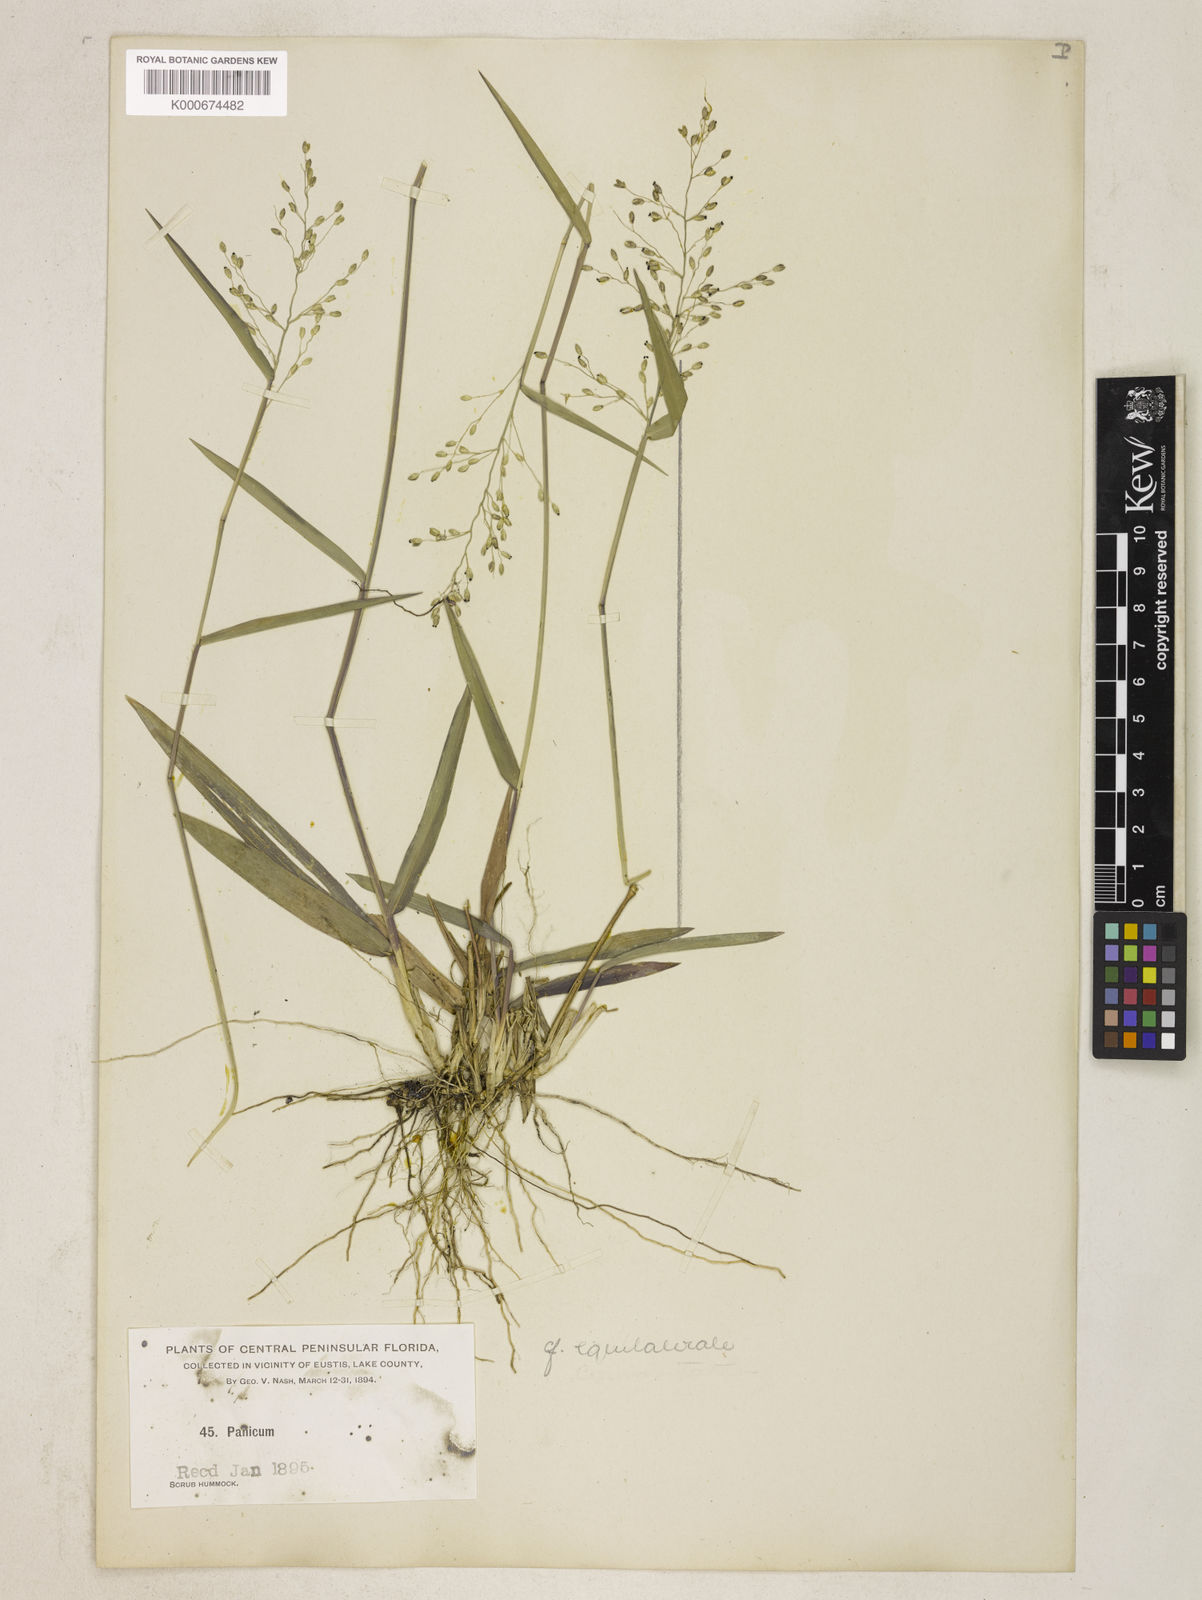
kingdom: Plantae
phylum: Tracheophyta
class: Liliopsida
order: Poales
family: Poaceae
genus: Dichanthelium
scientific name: Dichanthelium equilaterale
